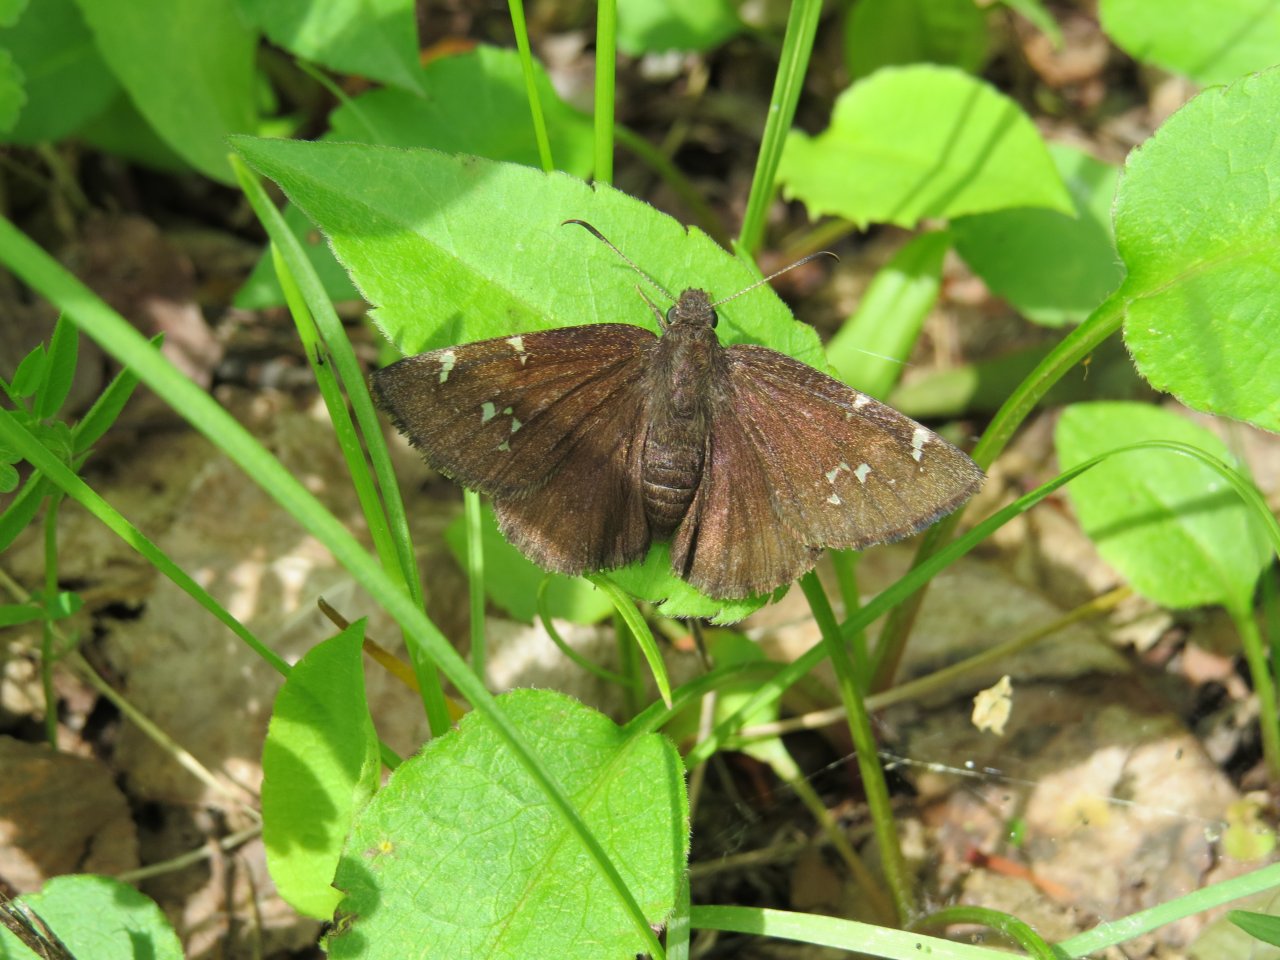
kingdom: Animalia
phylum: Arthropoda
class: Insecta
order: Lepidoptera
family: Hesperiidae
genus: Autochton
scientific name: Autochton
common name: Northern Cloudywing
